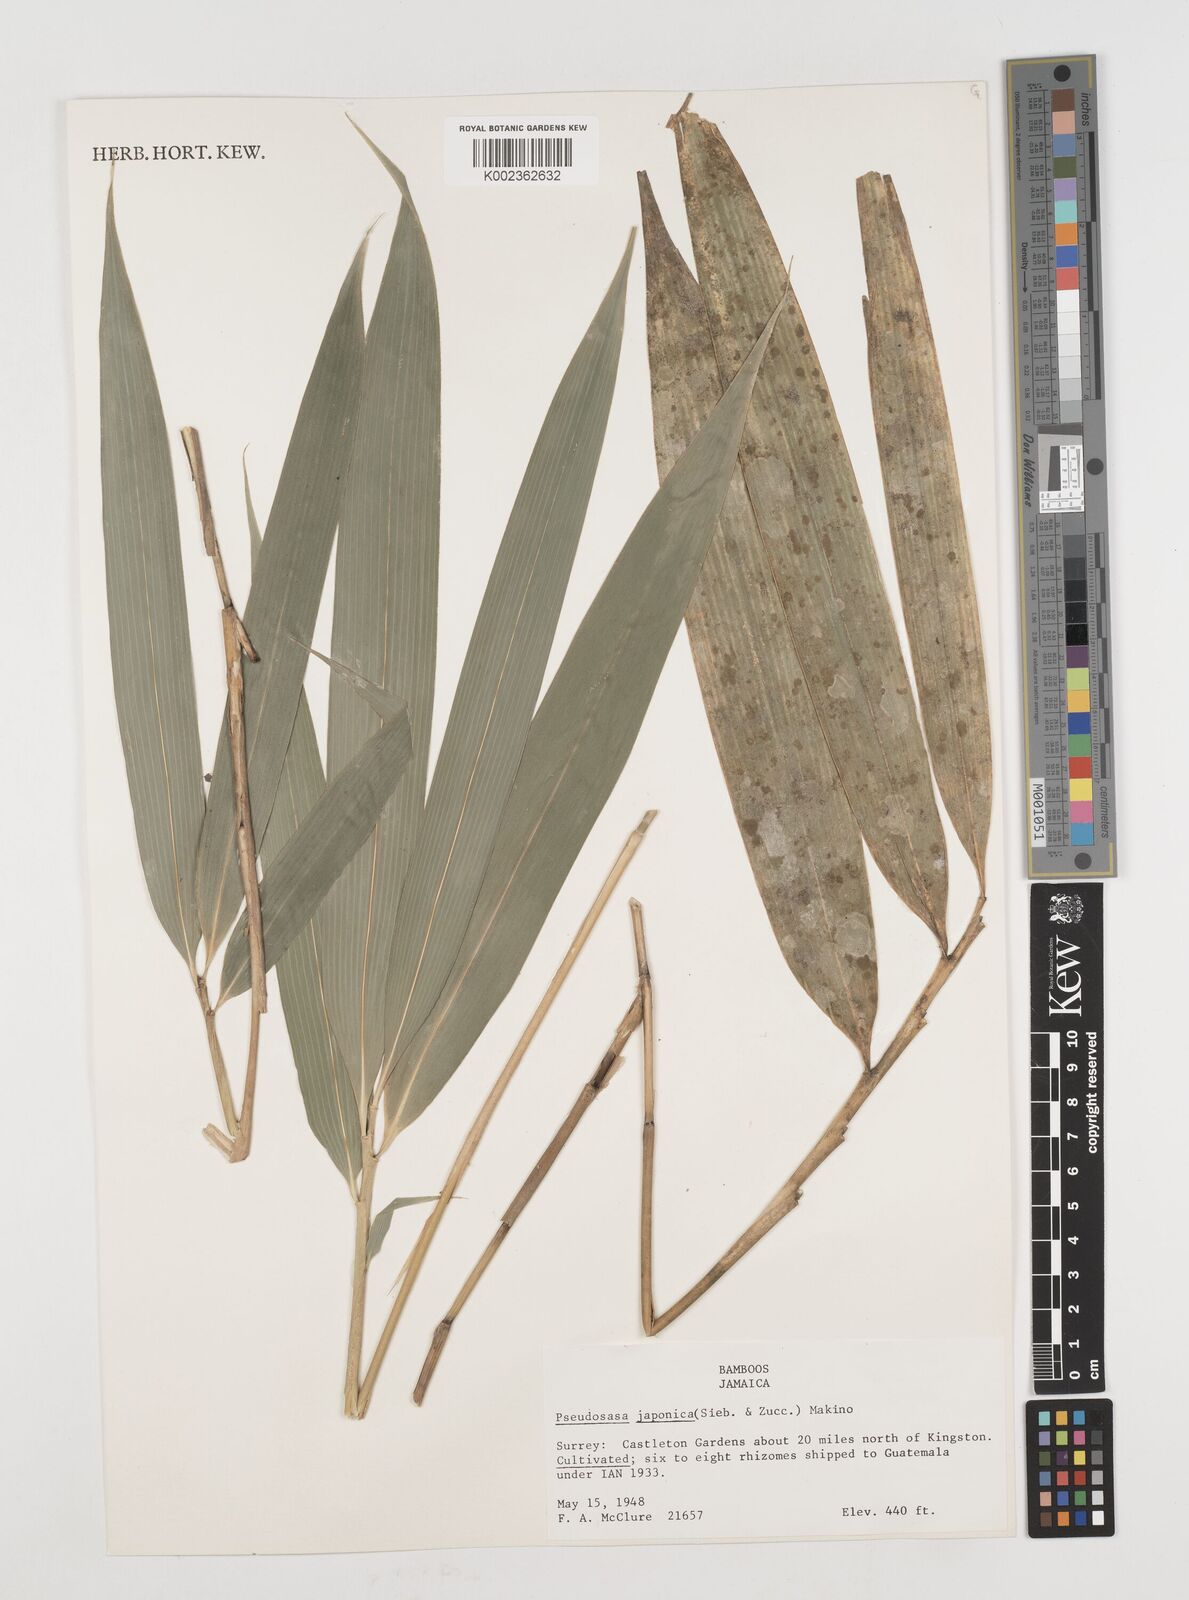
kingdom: Plantae
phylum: Tracheophyta
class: Liliopsida
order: Poales
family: Poaceae
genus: Pseudosasa
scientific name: Pseudosasa japonica
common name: Arrow bamboo
